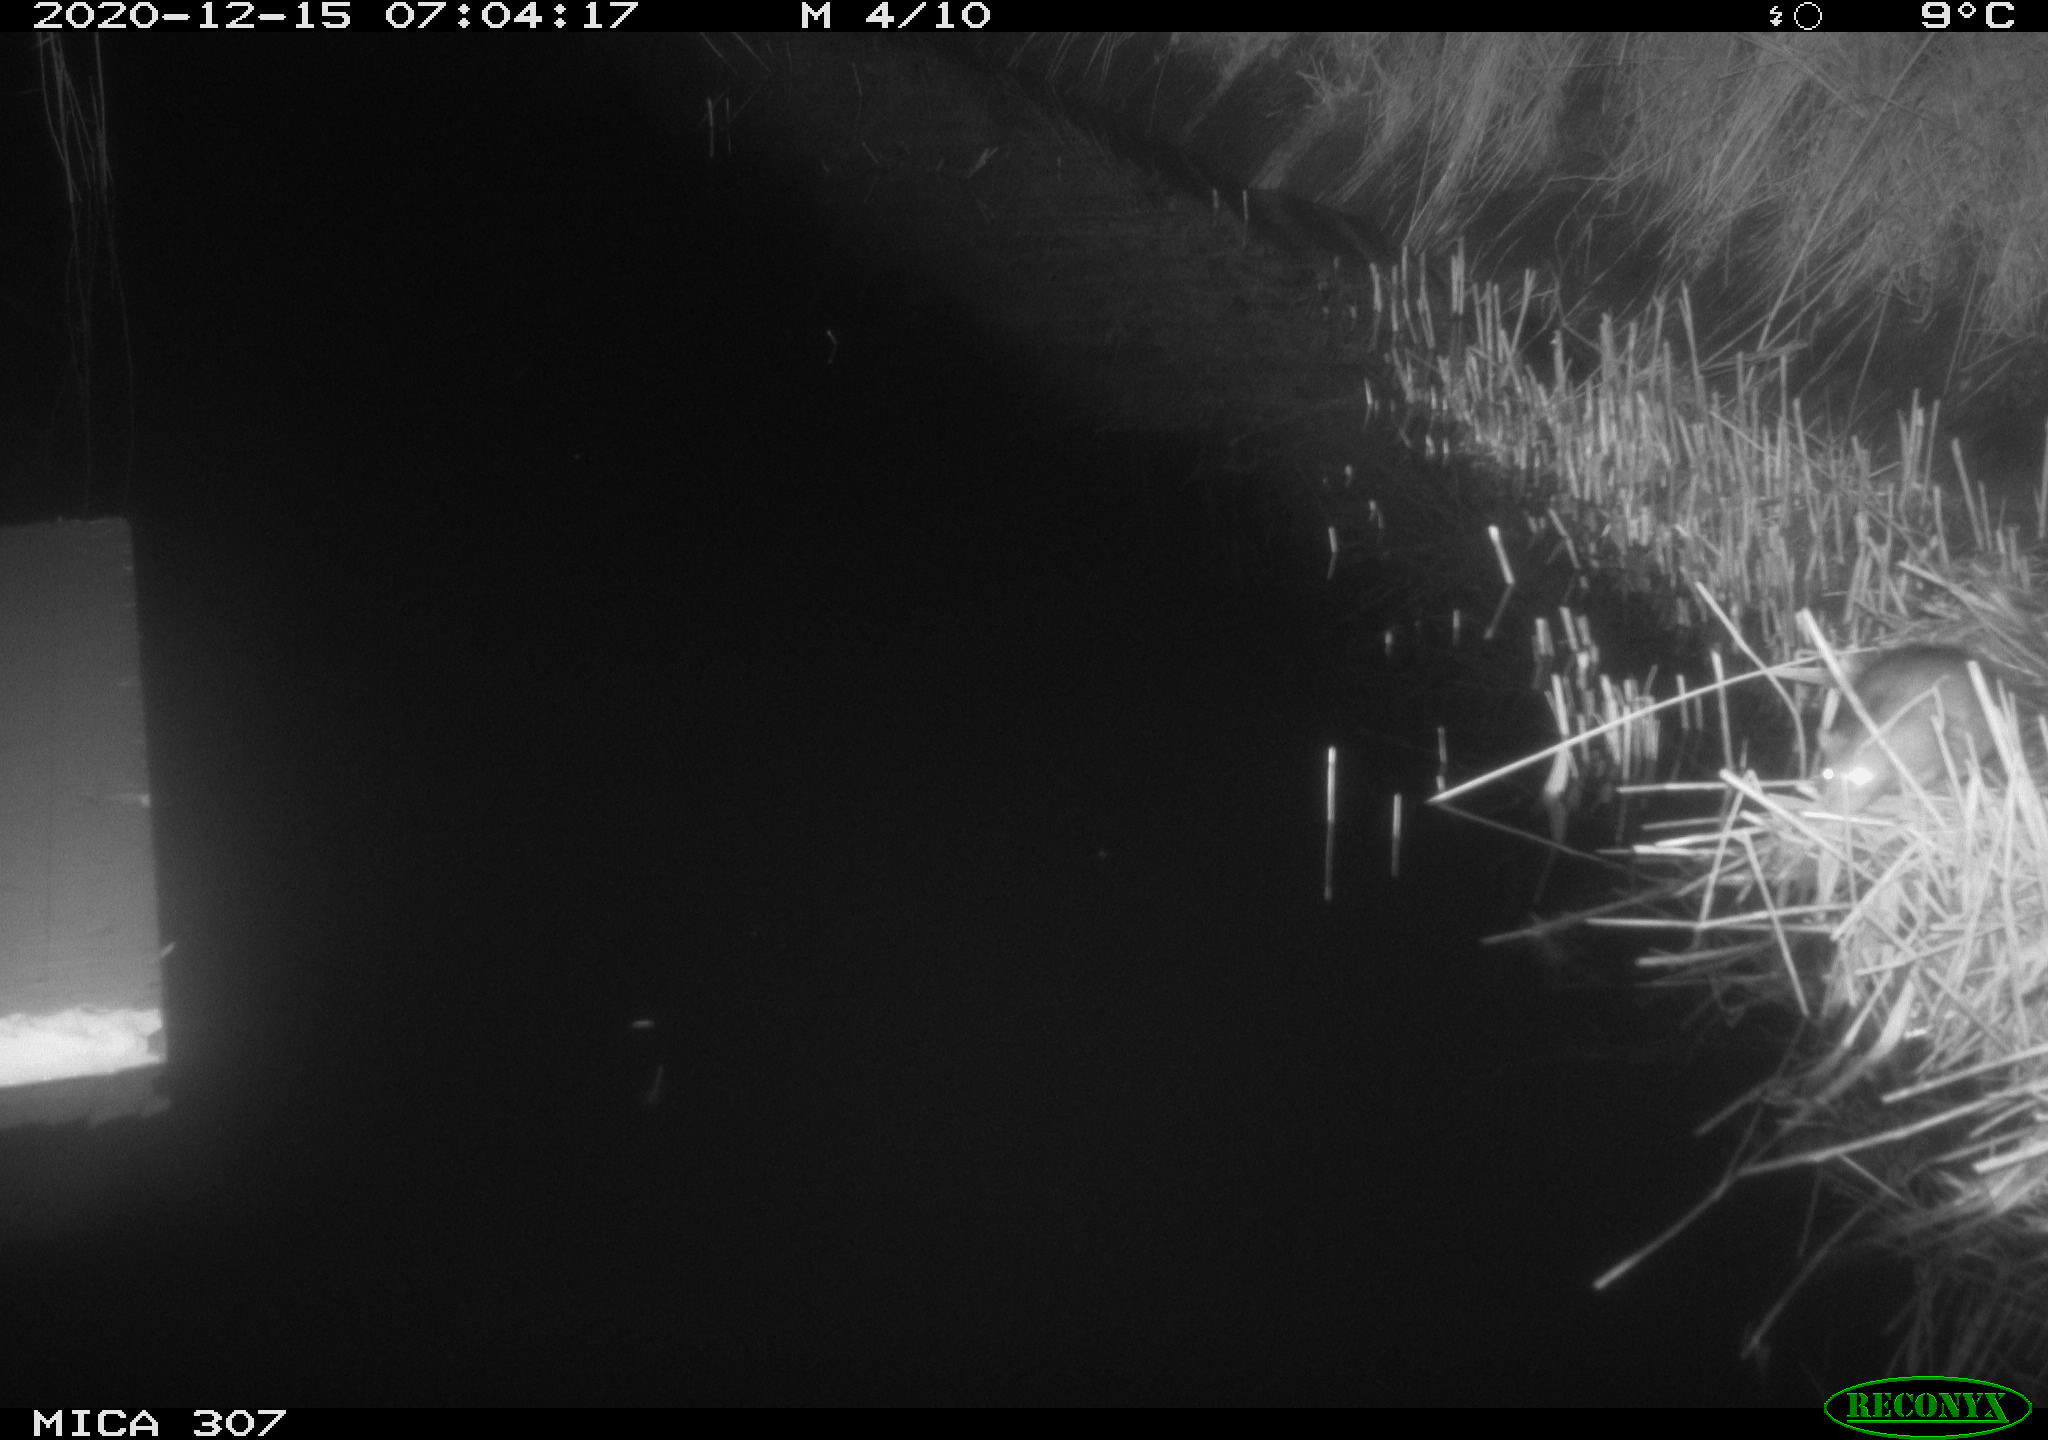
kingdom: Animalia
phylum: Chordata
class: Mammalia
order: Rodentia
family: Muridae
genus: Rattus
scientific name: Rattus norvegicus
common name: Brown rat
